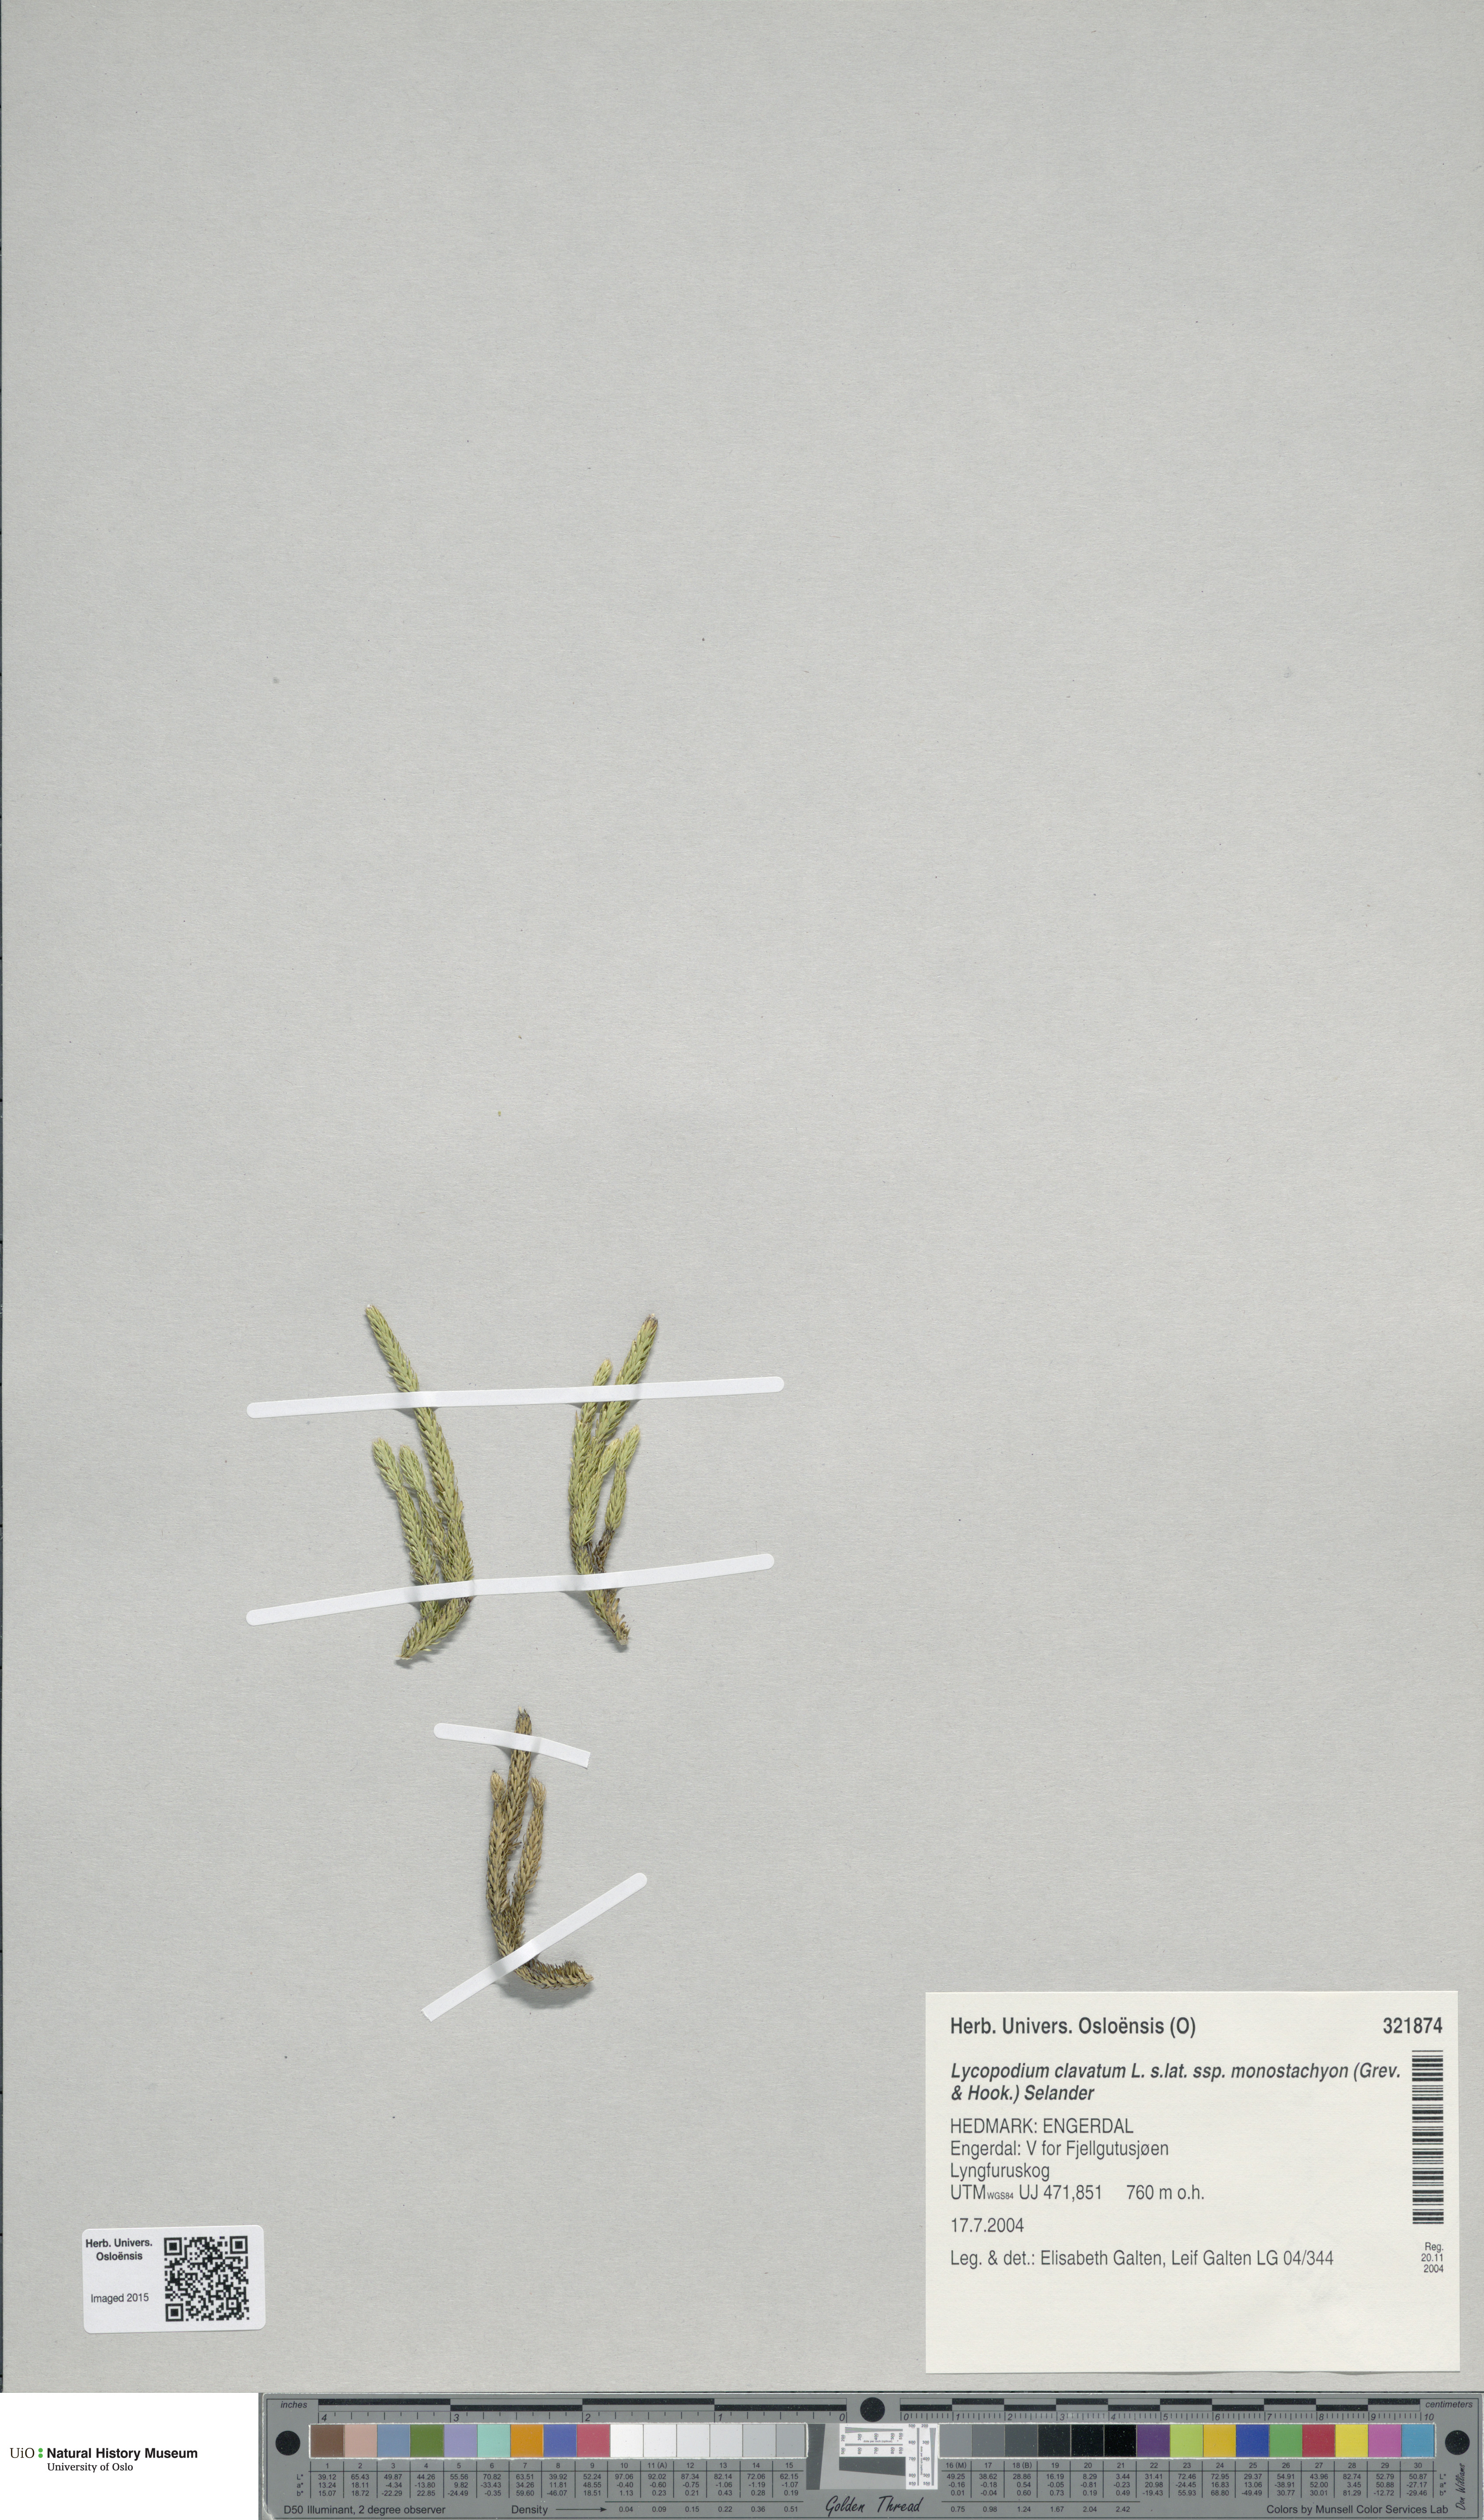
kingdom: Plantae
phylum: Tracheophyta
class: Lycopodiopsida
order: Lycopodiales
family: Lycopodiaceae
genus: Lycopodium
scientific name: Lycopodium lagopus
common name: One-cone clubmoss
